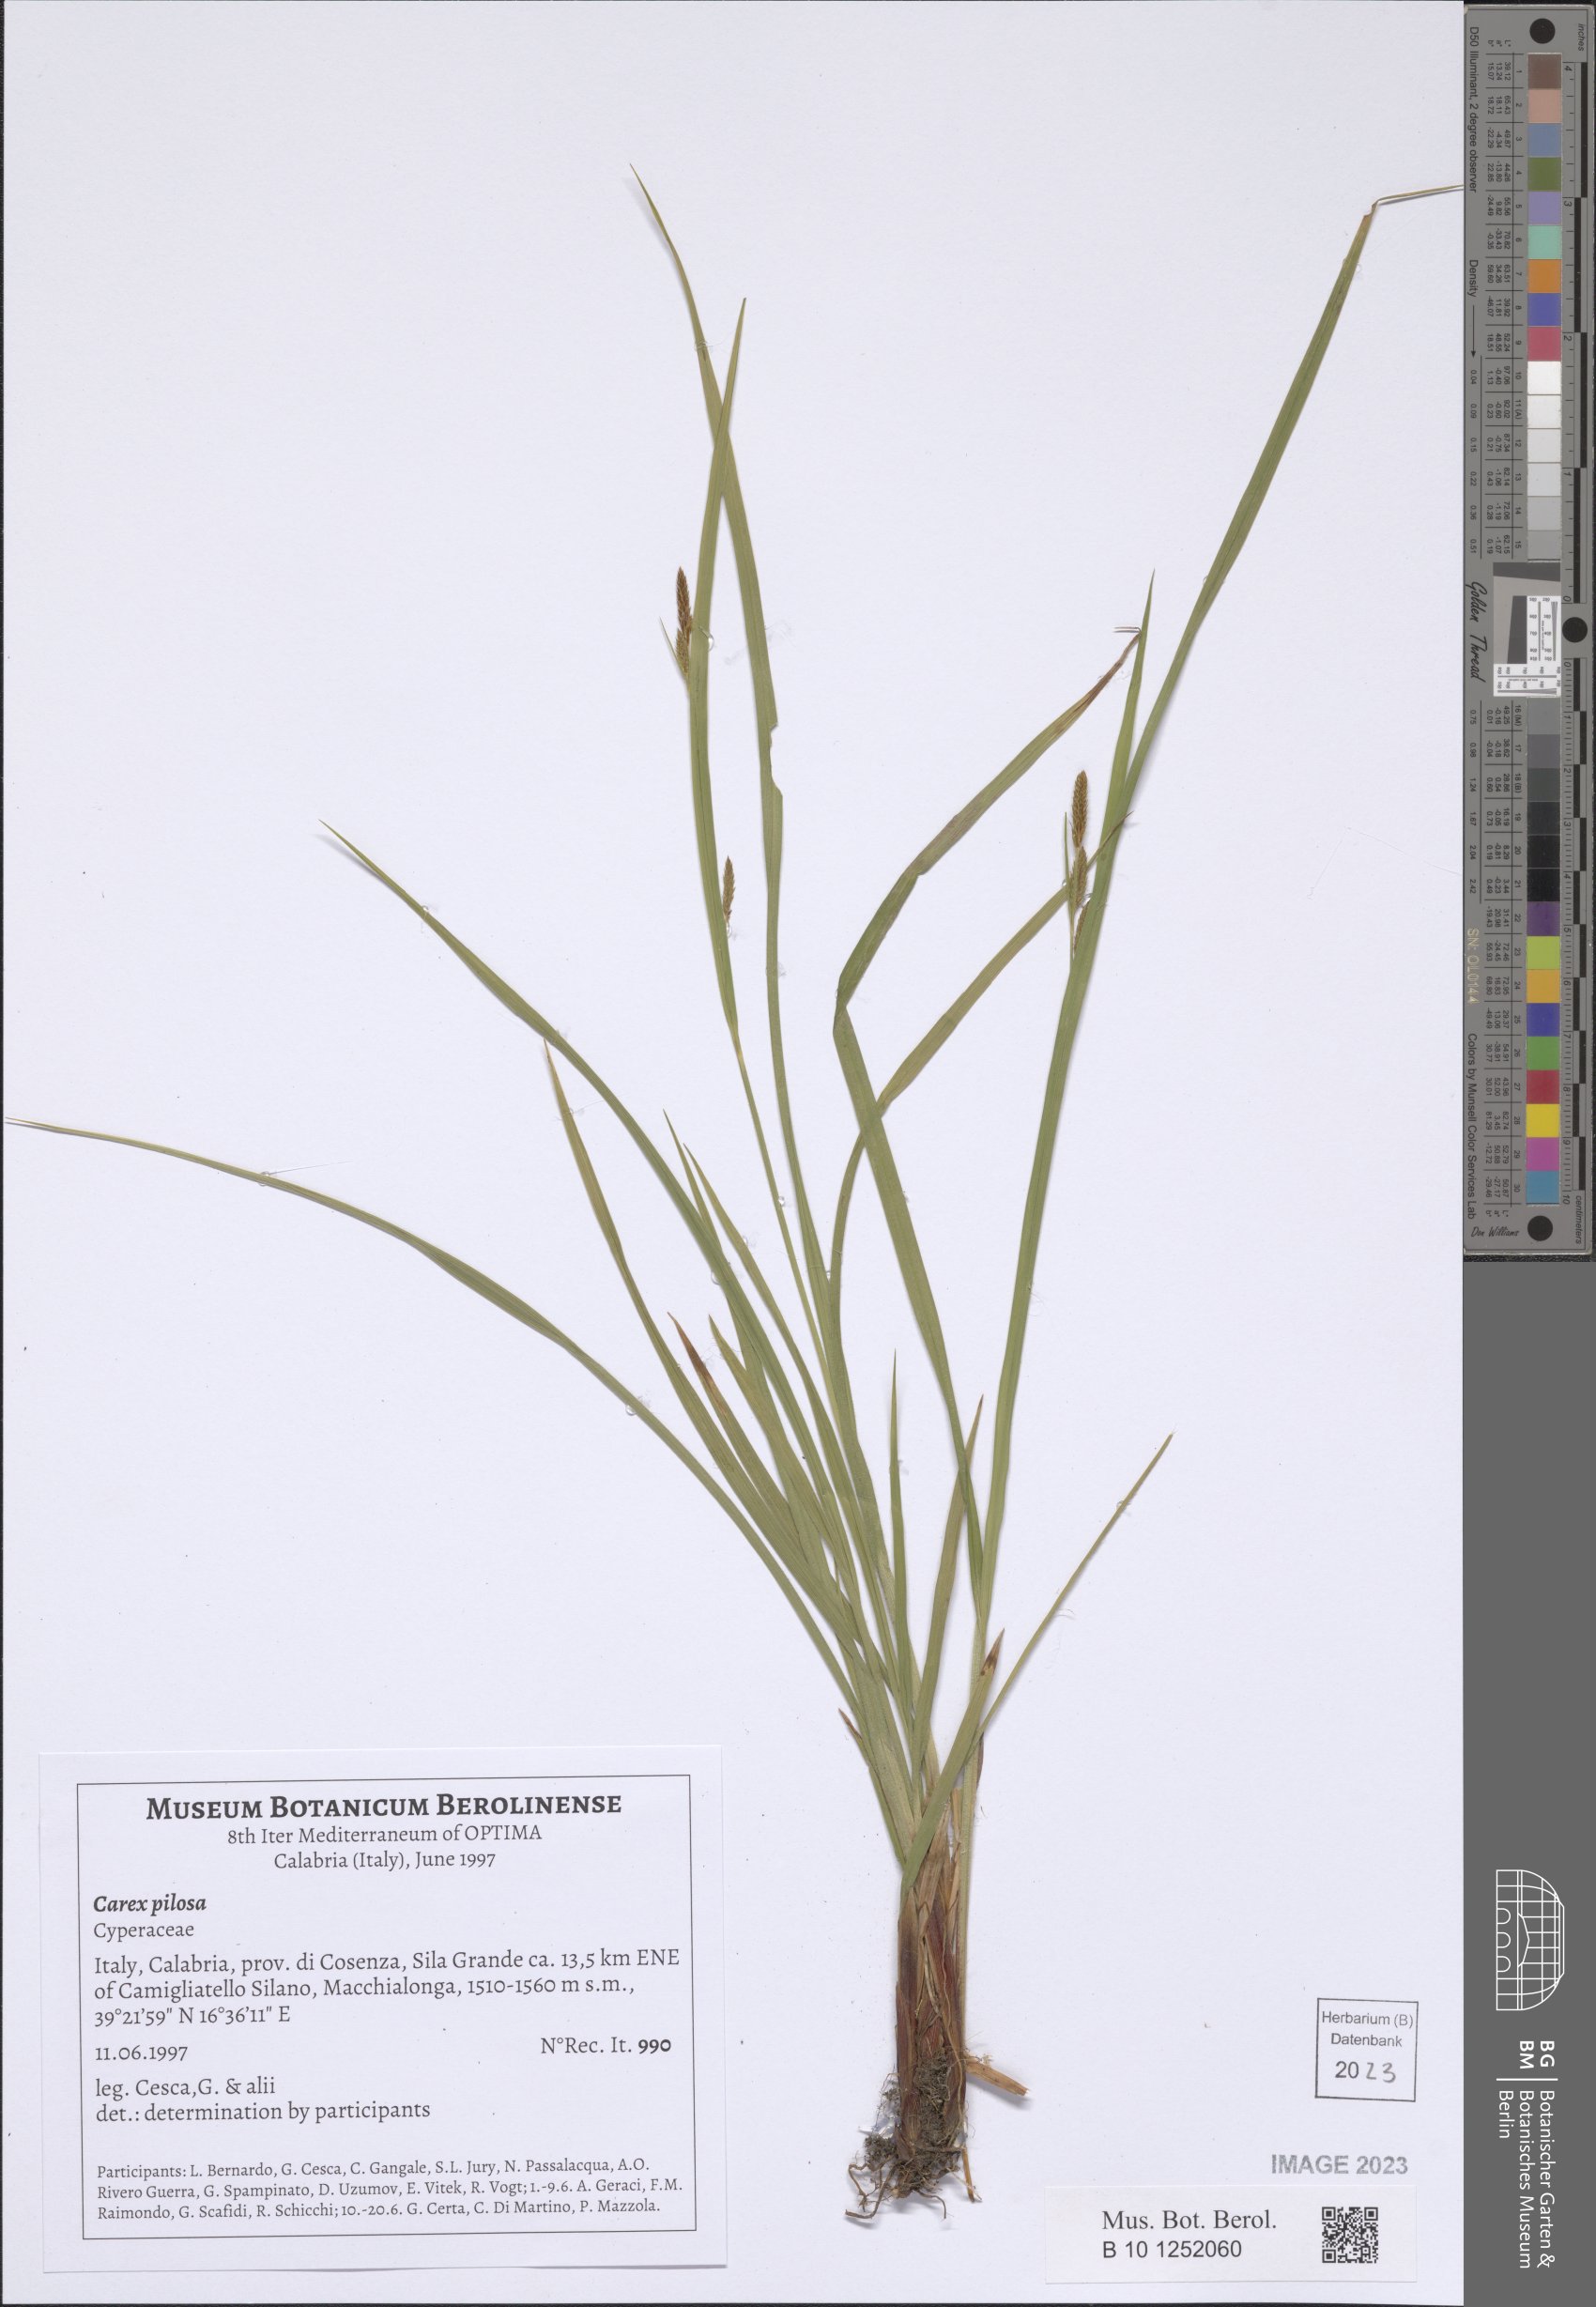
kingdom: Plantae
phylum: Tracheophyta
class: Liliopsida
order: Poales
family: Cyperaceae
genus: Carex
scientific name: Carex pilosa
